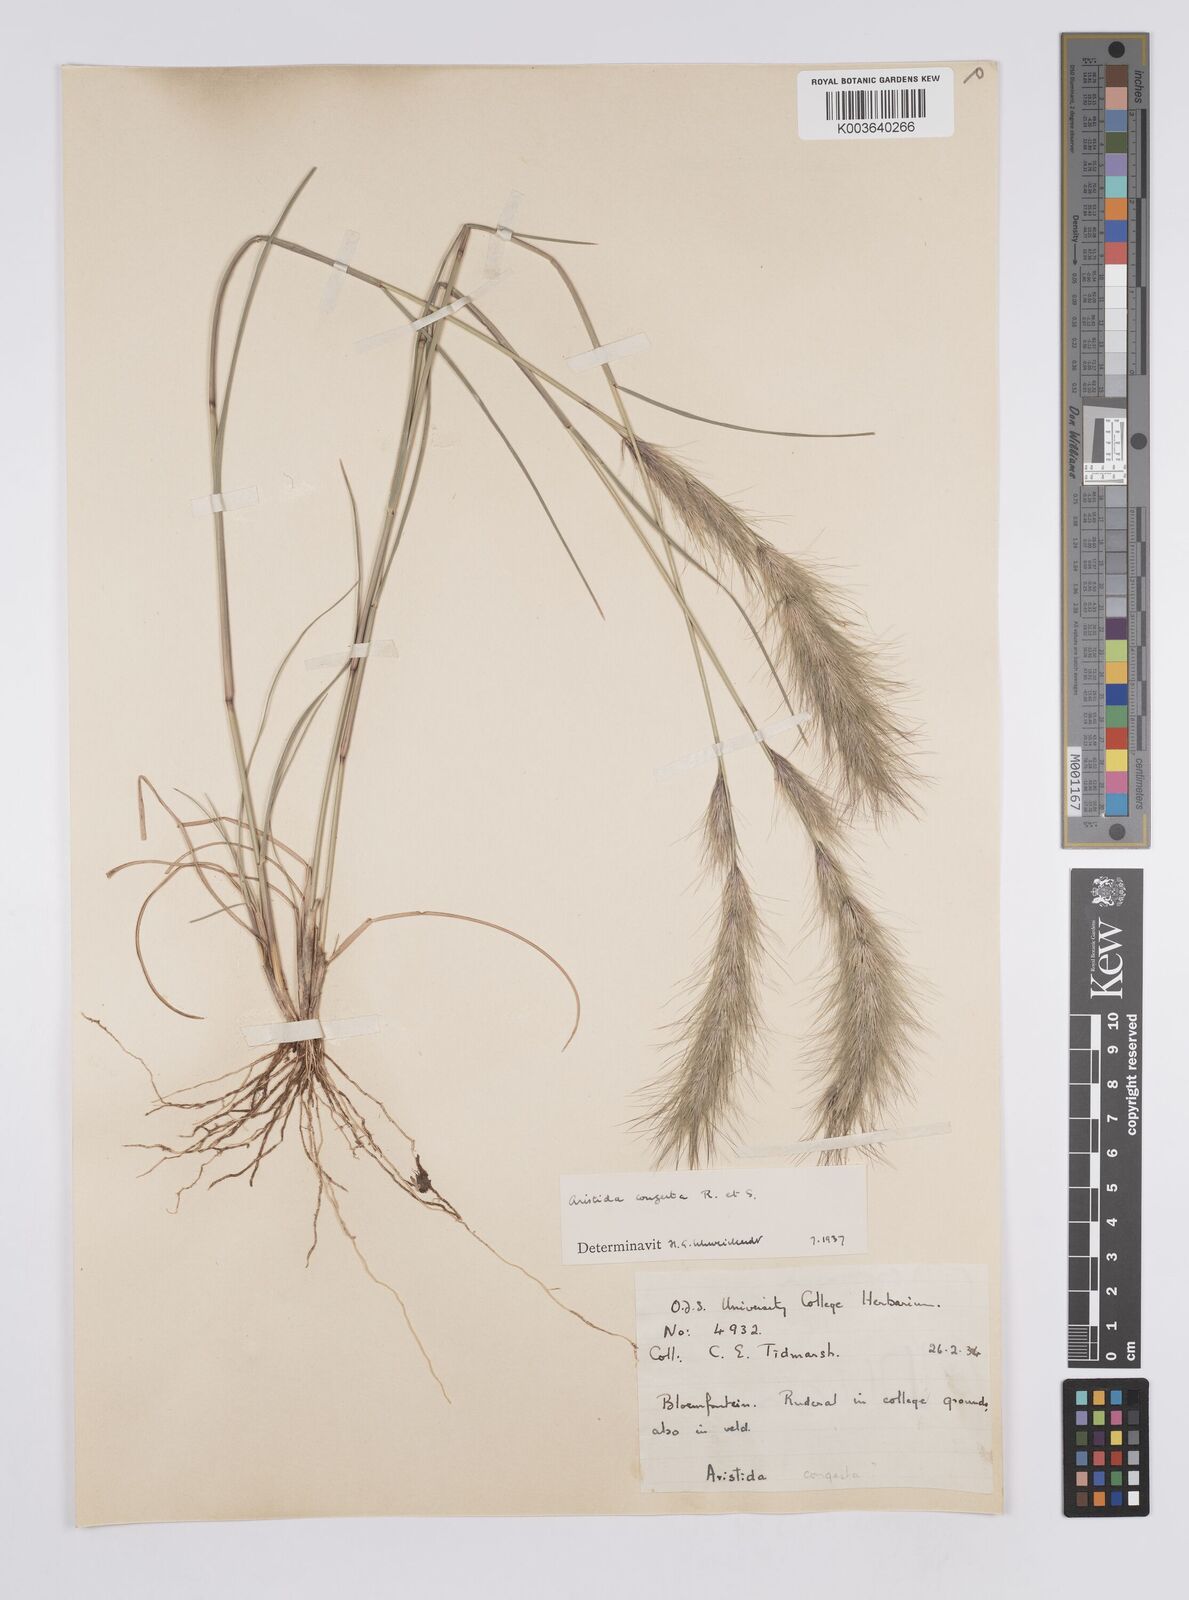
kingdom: Plantae
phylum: Tracheophyta
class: Liliopsida
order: Poales
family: Poaceae
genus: Aristida
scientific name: Aristida congesta
